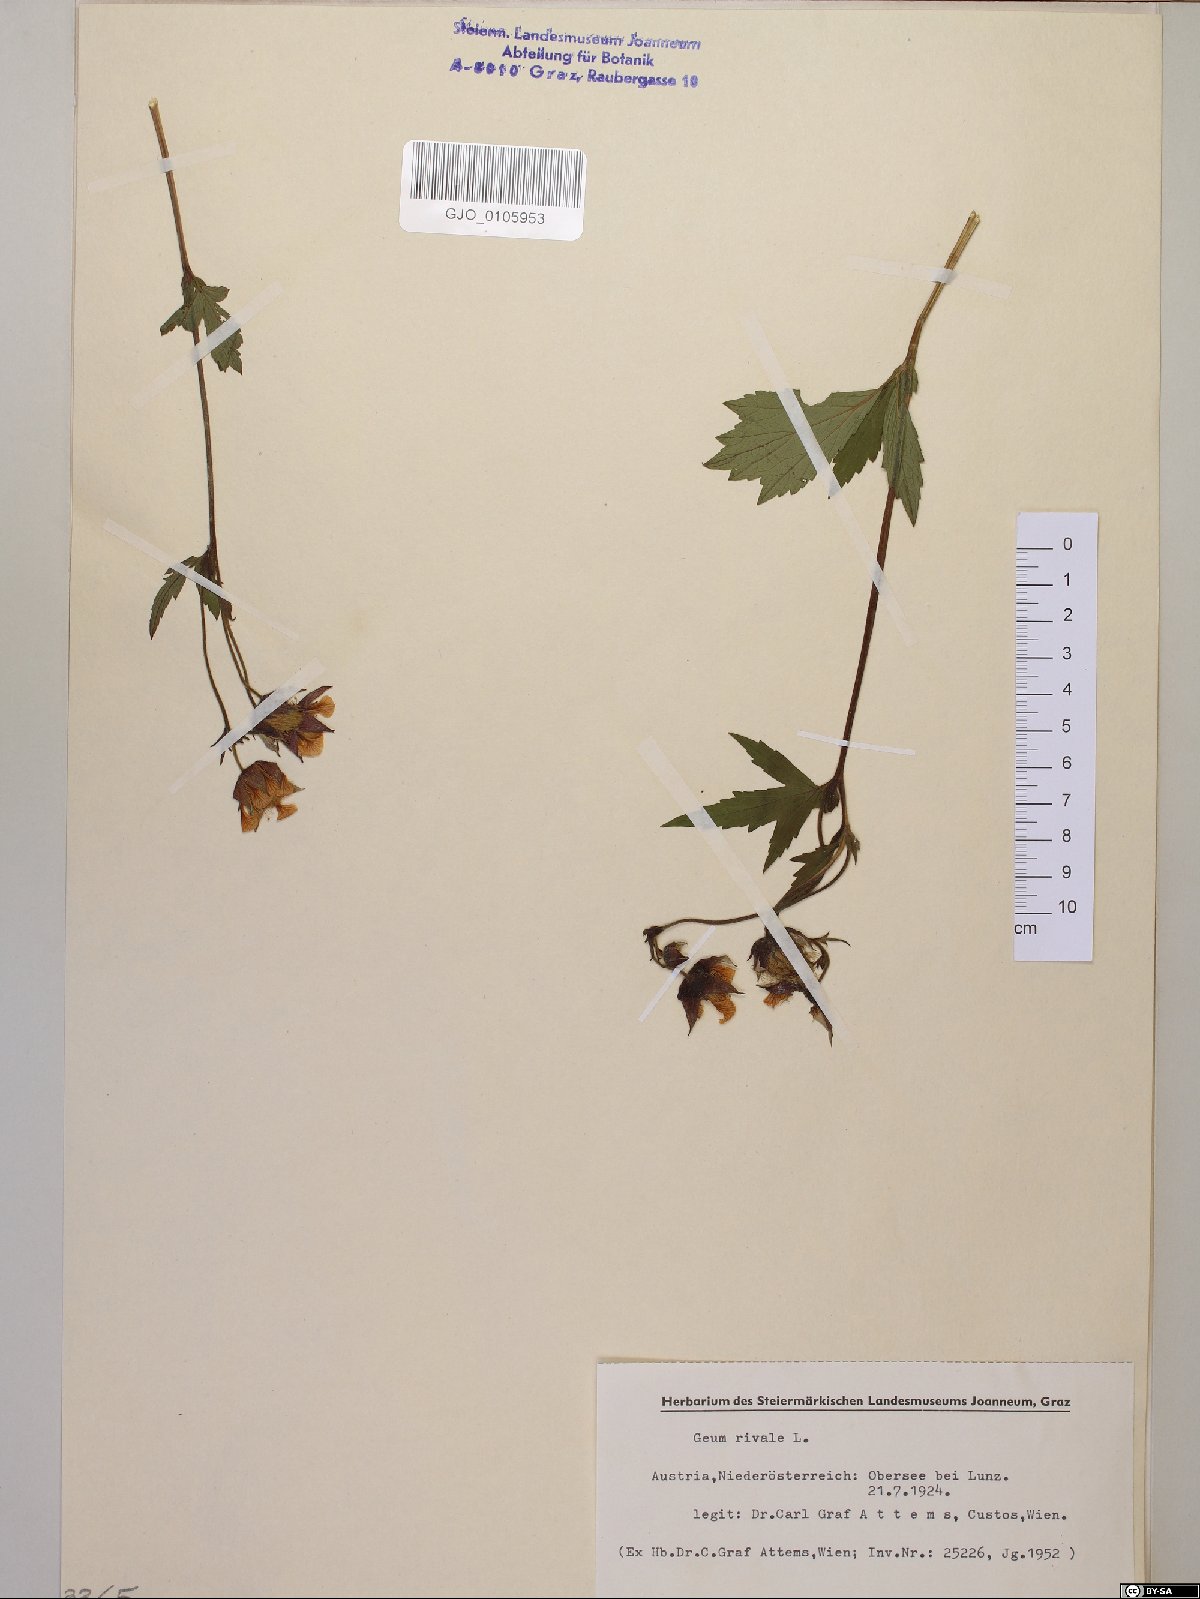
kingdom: Plantae
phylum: Tracheophyta
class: Magnoliopsida
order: Rosales
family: Rosaceae
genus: Geum
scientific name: Geum rivale
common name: Water avens
